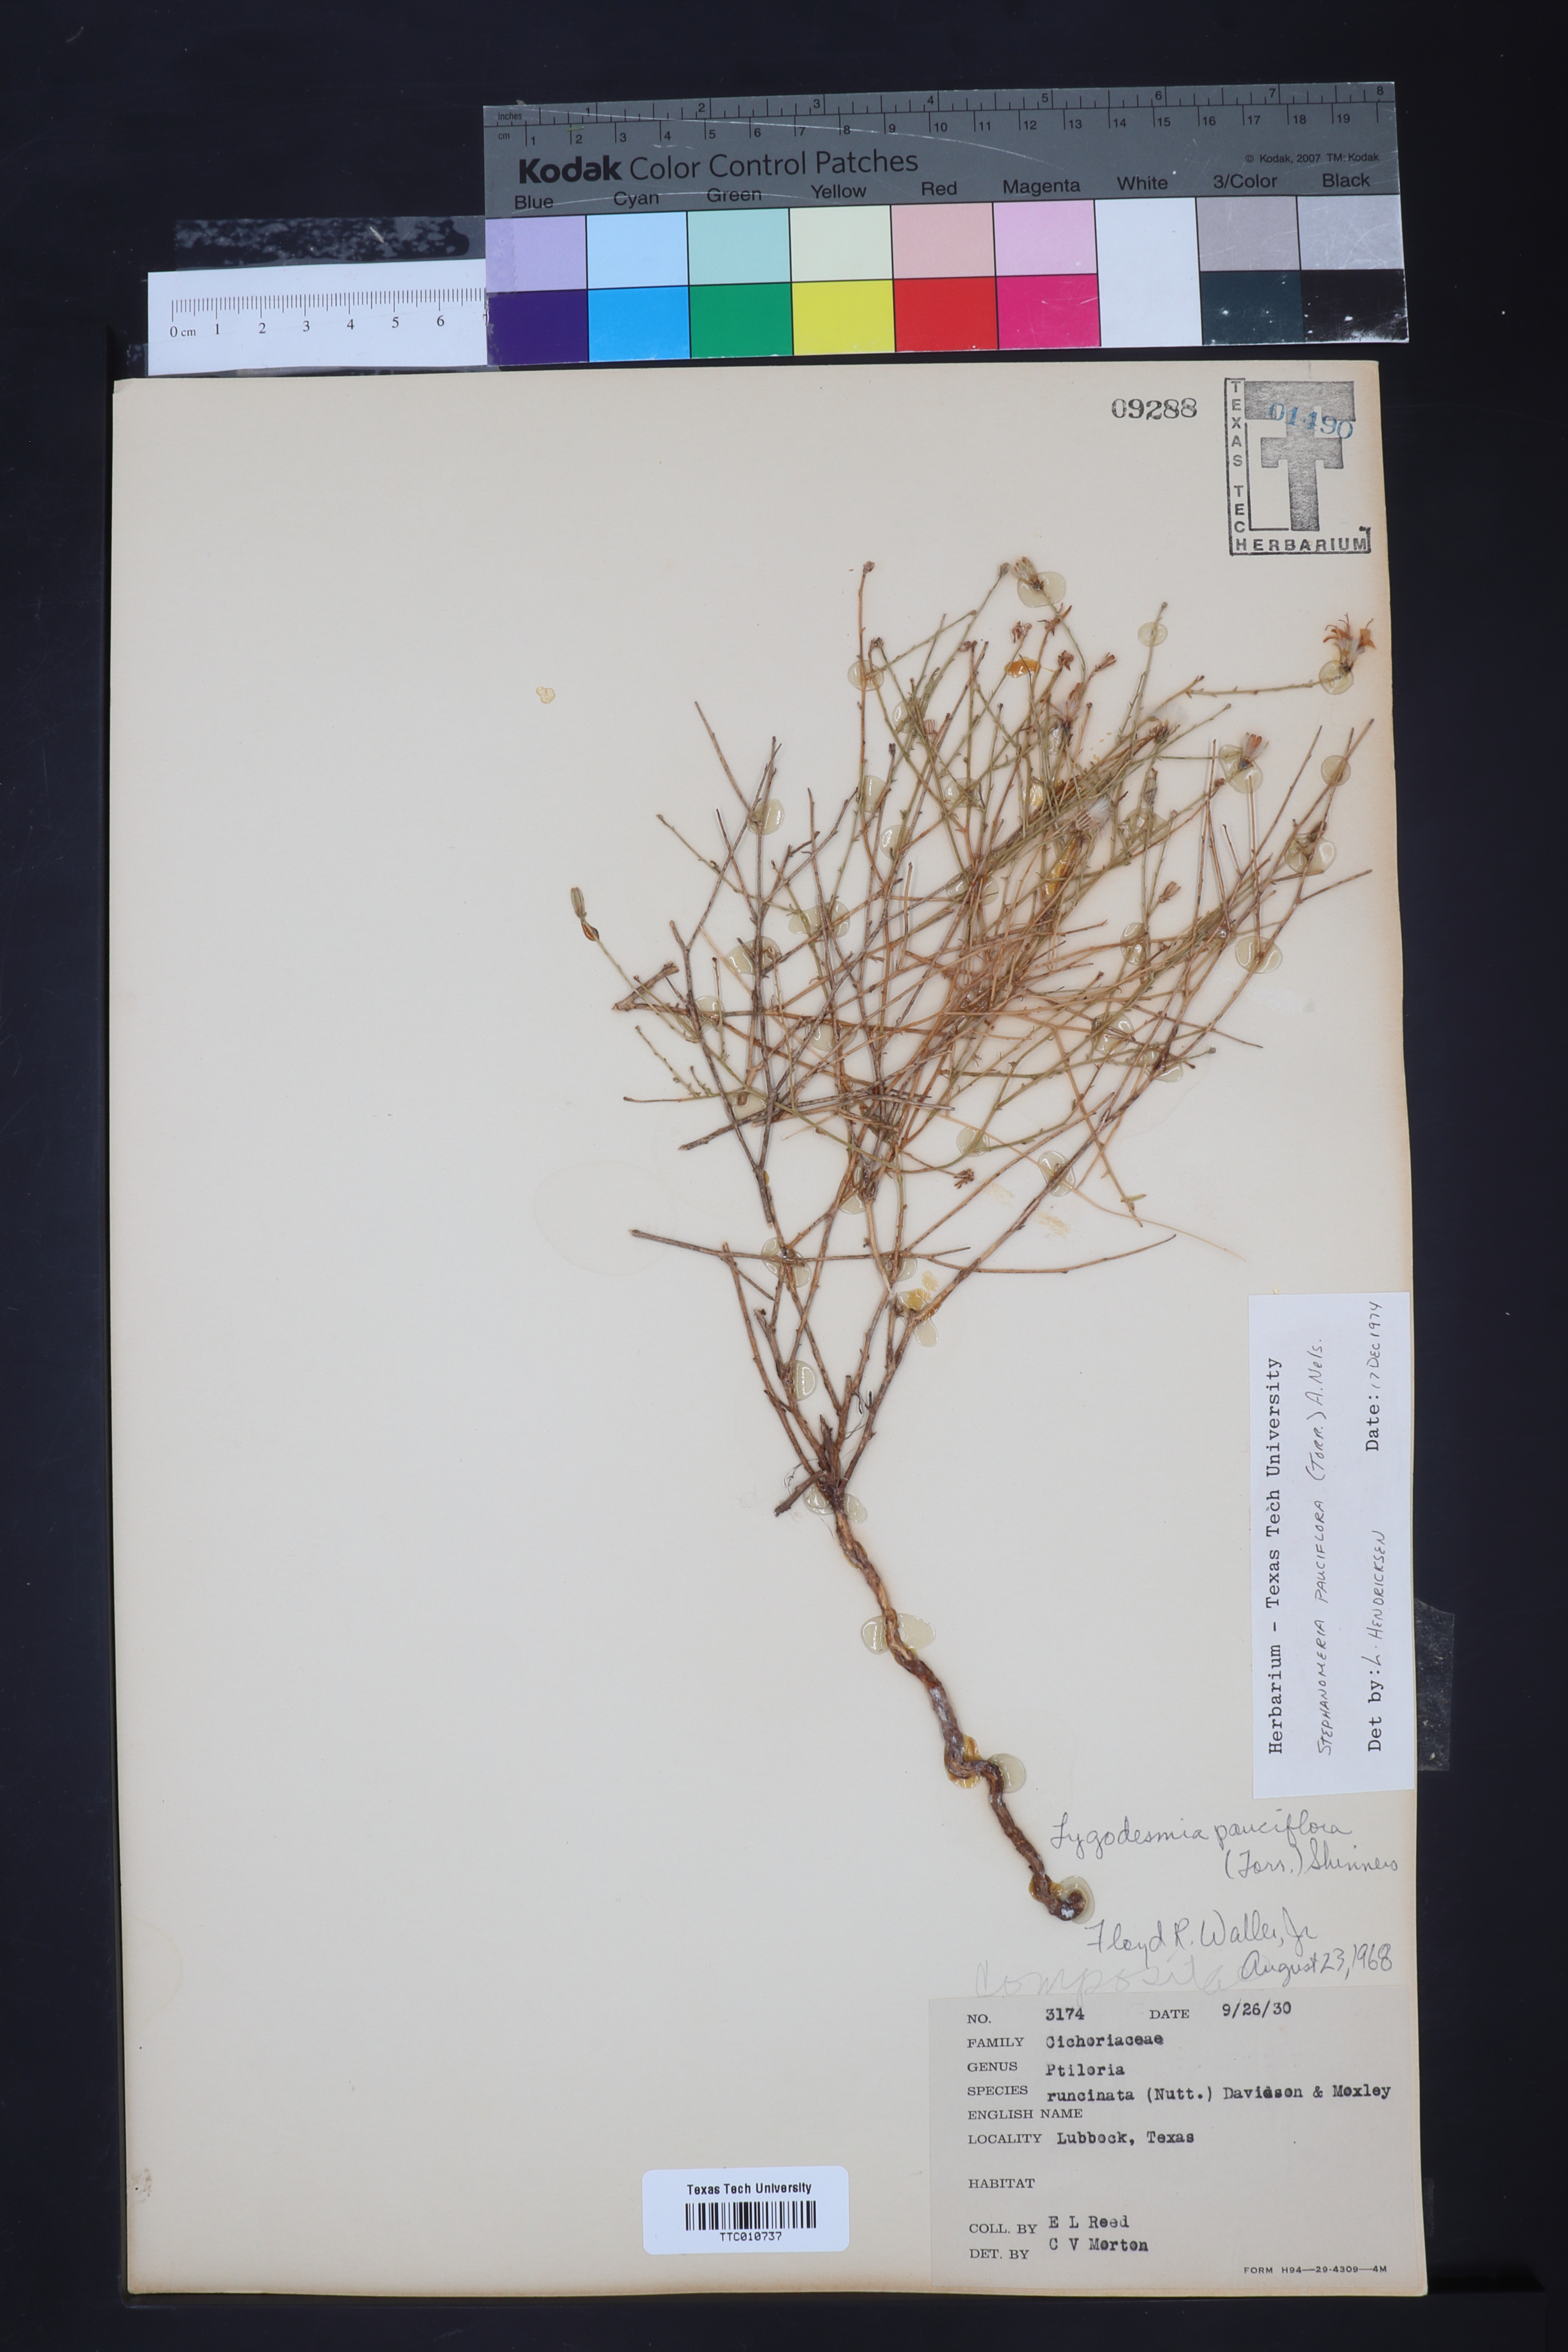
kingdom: Plantae
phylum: Tracheophyta
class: Magnoliopsida
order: Asterales
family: Asteraceae
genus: Stephanomeria
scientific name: Stephanomeria pauciflora
